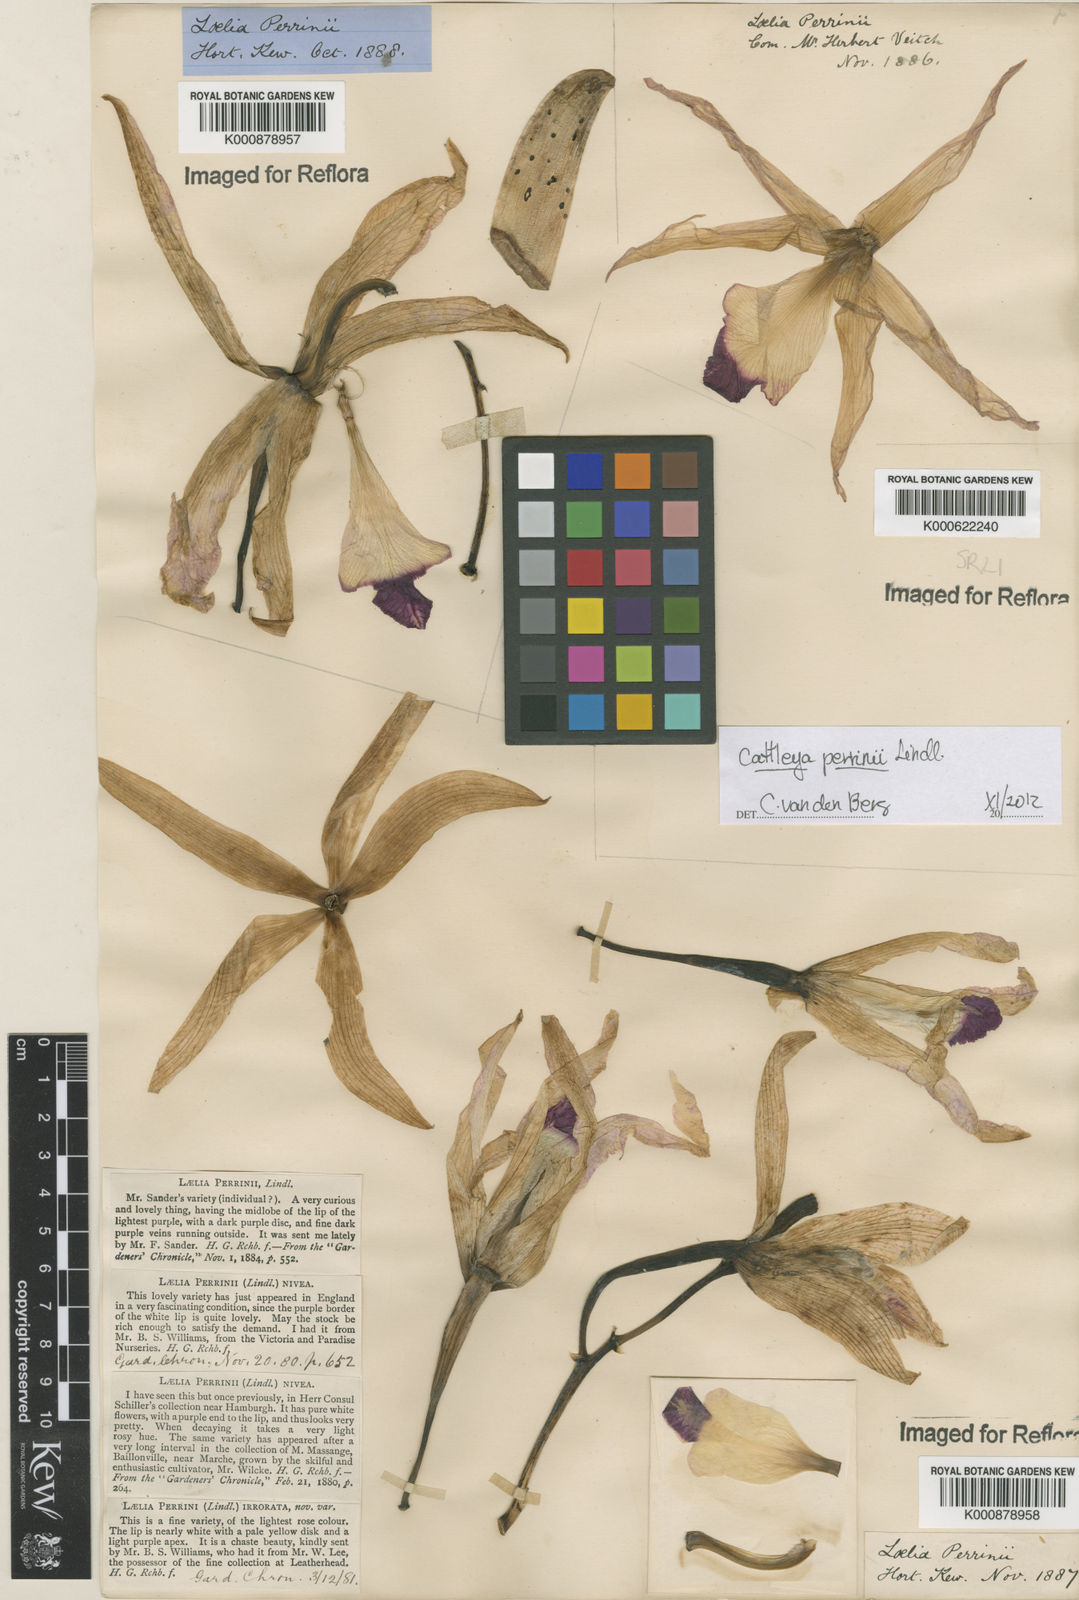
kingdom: Plantae
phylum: Tracheophyta
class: Liliopsida
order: Asparagales
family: Orchidaceae
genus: Cattleya
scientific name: Cattleya labiata
